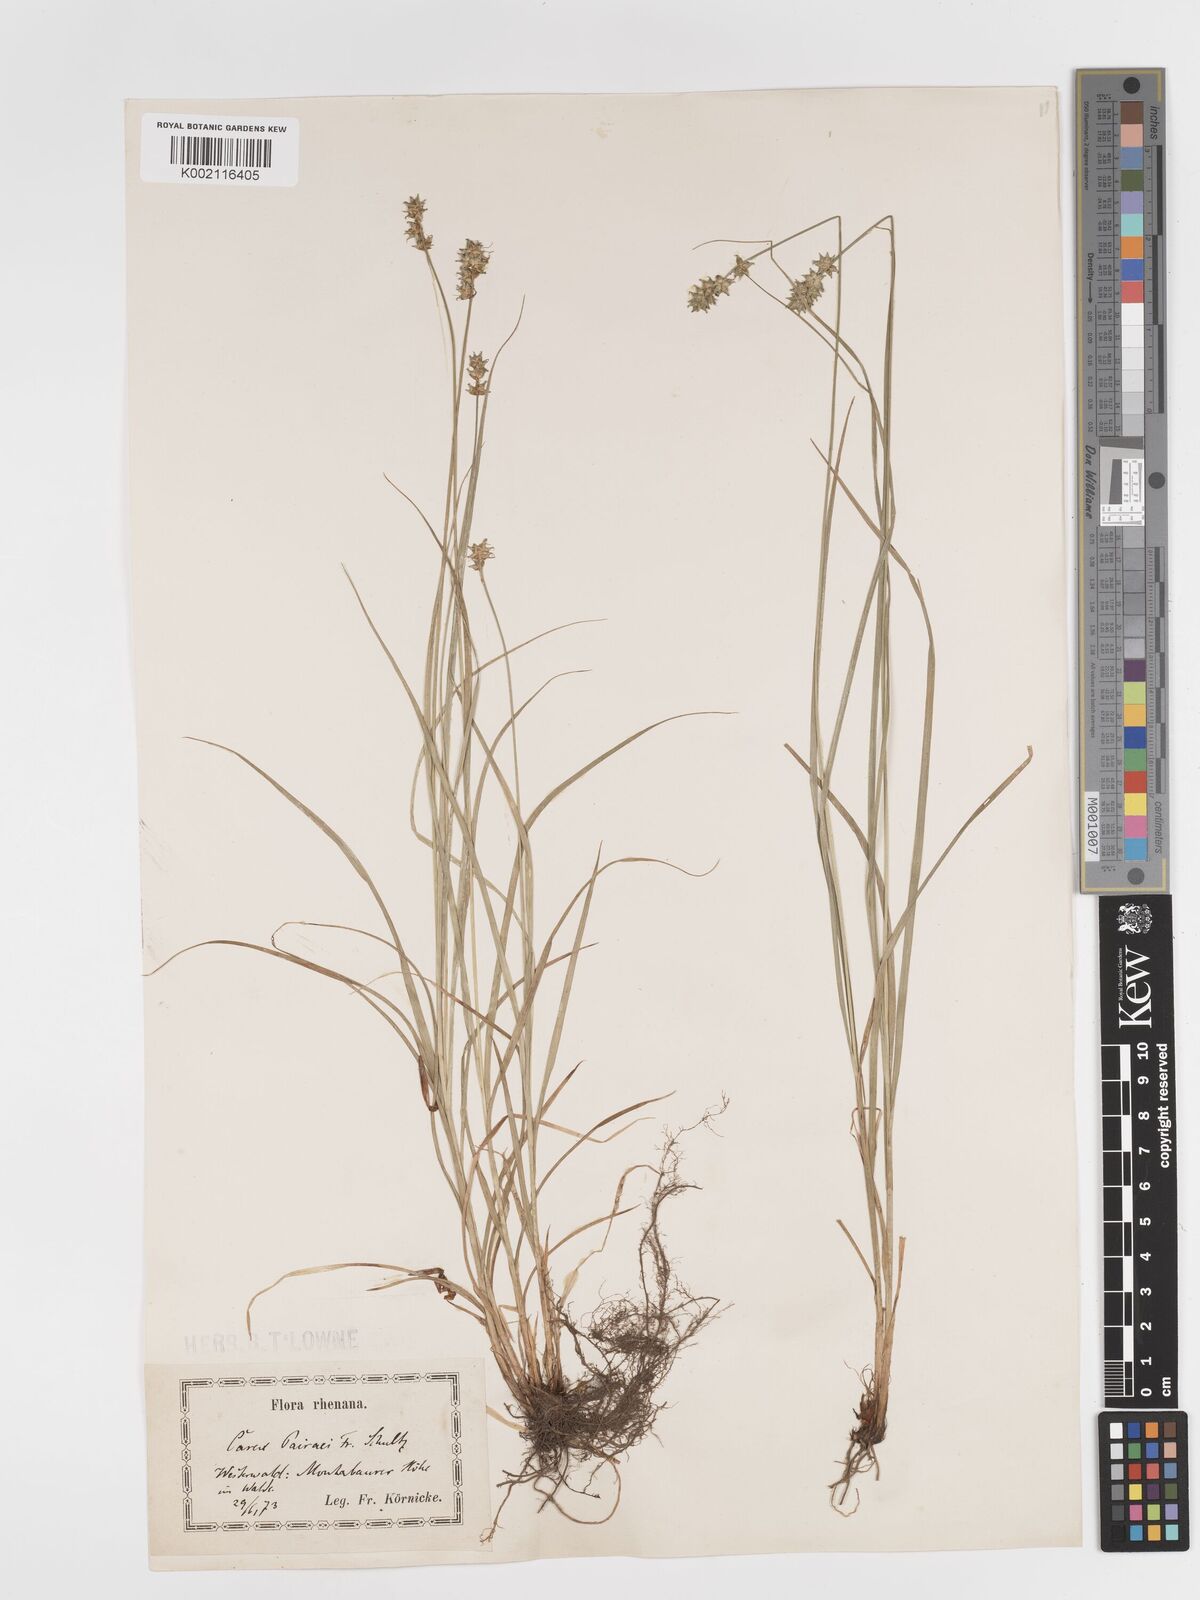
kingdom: Plantae
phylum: Tracheophyta
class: Liliopsida
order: Poales
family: Cyperaceae
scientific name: Cyperaceae
